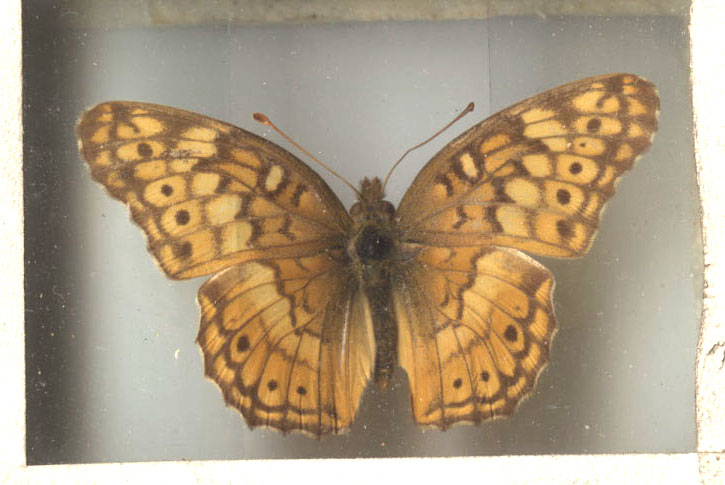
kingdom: Animalia
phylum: Arthropoda
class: Insecta
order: Lepidoptera
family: Nymphalidae
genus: Euptoieta
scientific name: Euptoieta claudia
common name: Variegated Fritillary
